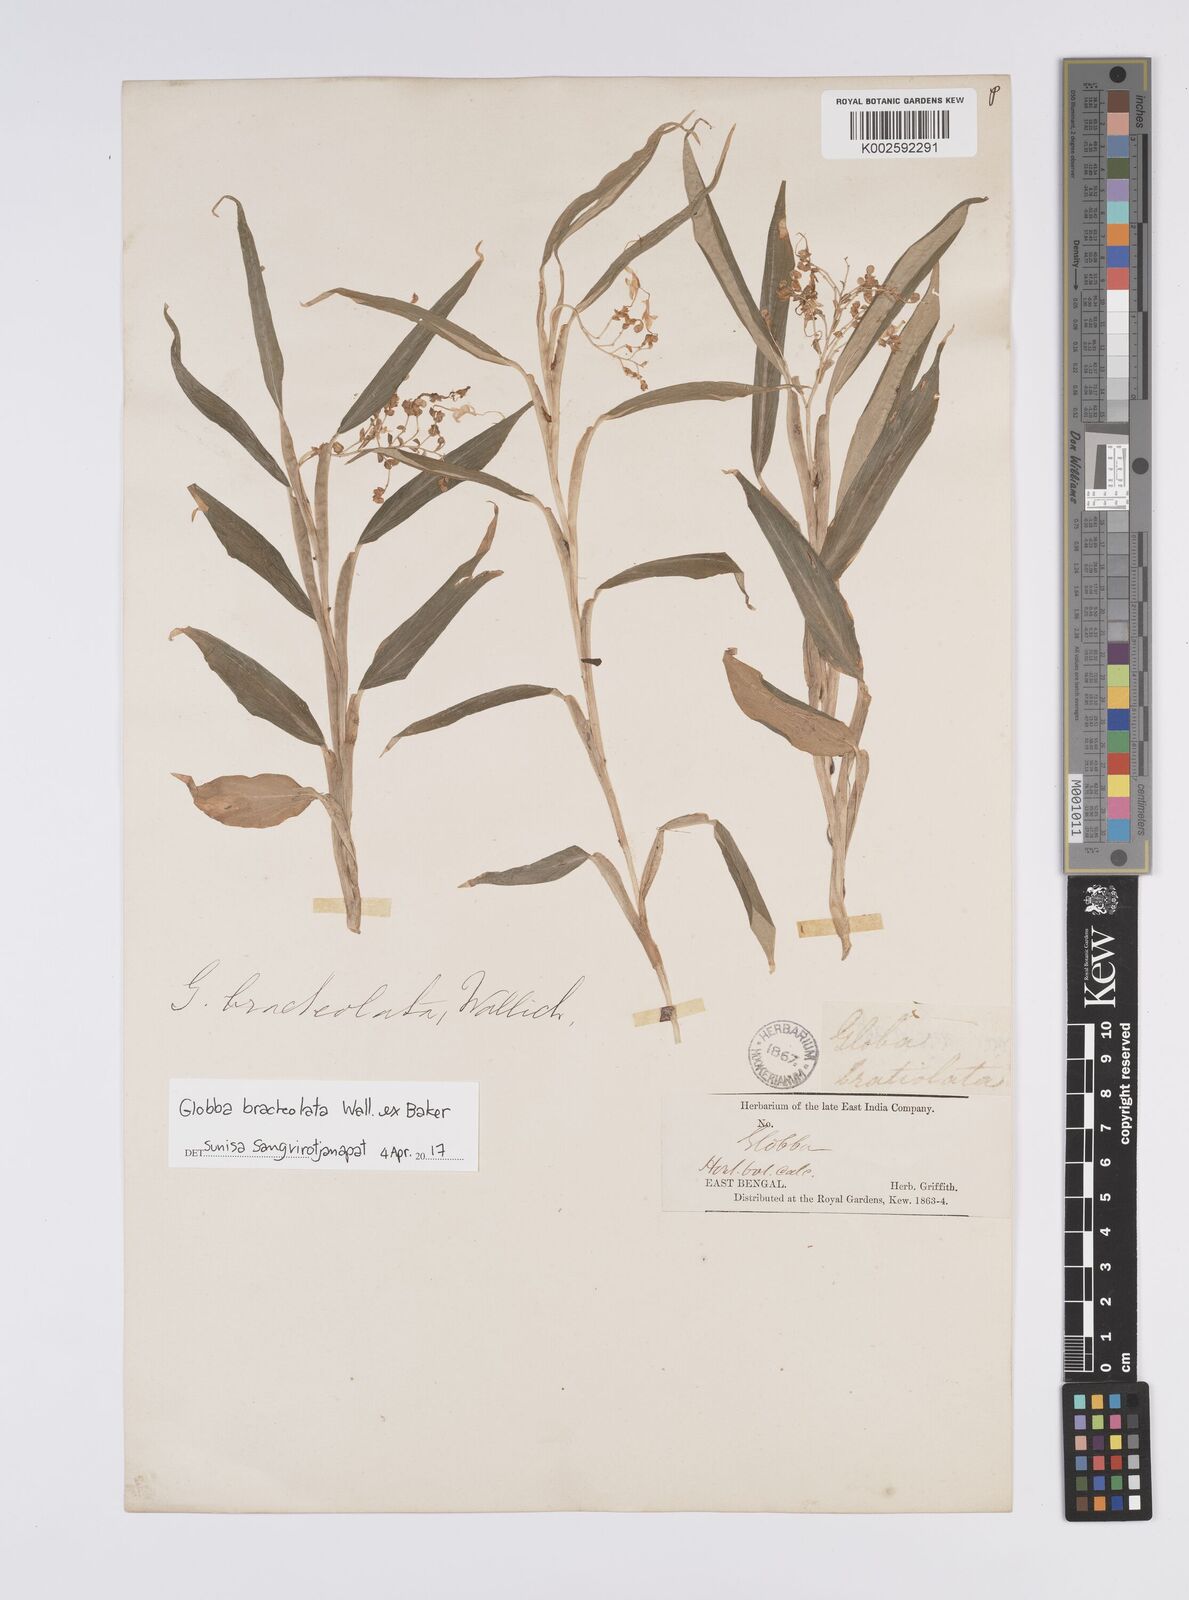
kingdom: Plantae
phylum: Tracheophyta
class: Liliopsida
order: Zingiberales
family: Zingiberaceae
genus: Globba
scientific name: Globba bracteolata
